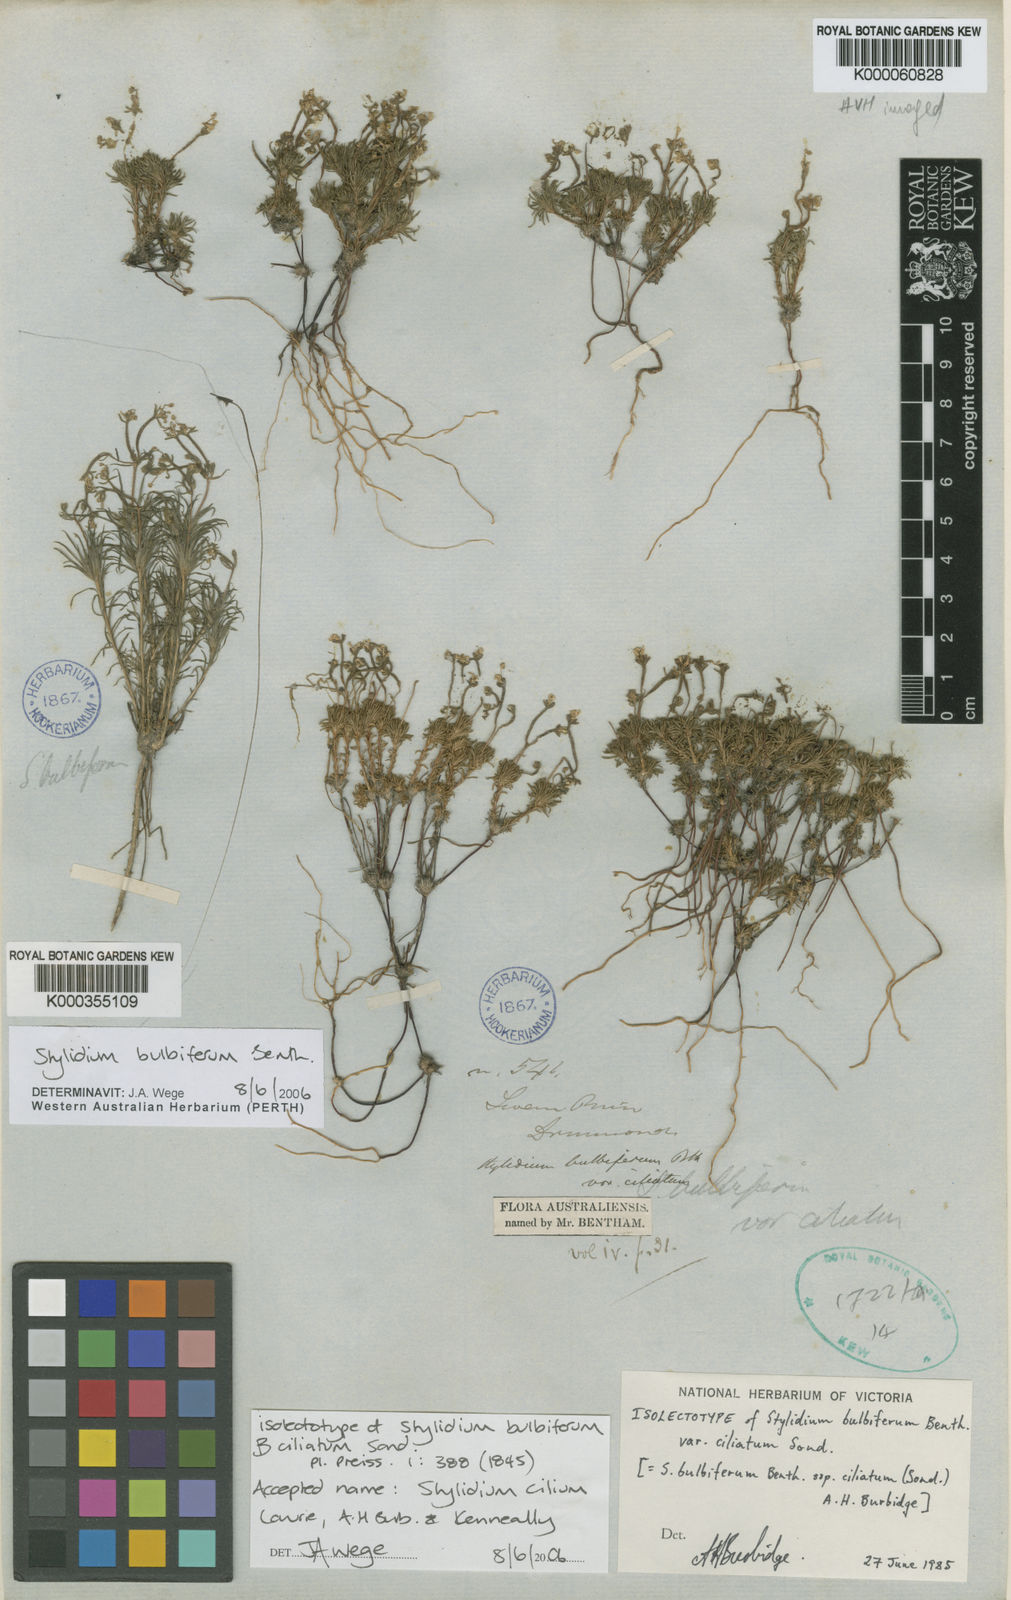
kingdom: Plantae
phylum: Tracheophyta
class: Magnoliopsida
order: Asterales
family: Stylidiaceae
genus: Stylidium
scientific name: Stylidium
